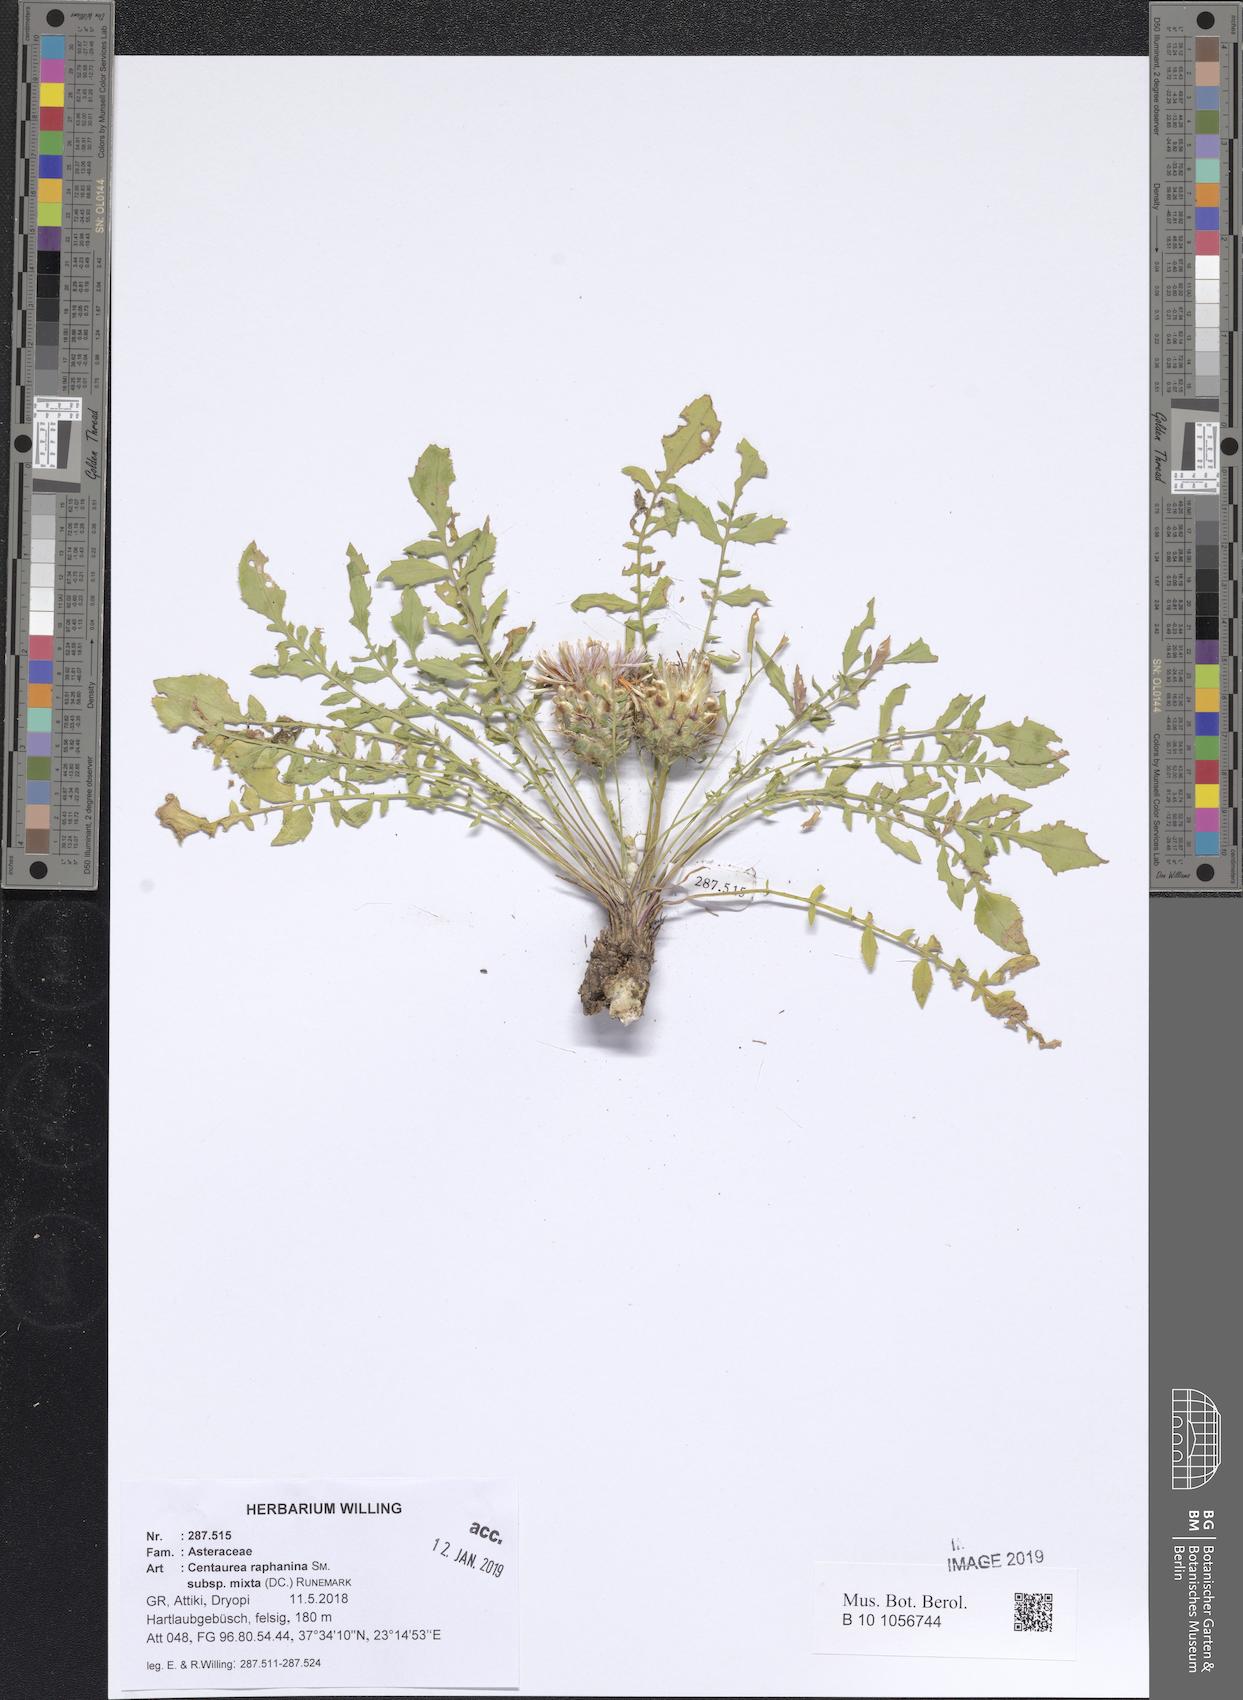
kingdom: Plantae
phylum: Tracheophyta
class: Magnoliopsida
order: Asterales
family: Asteraceae
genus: Centaurea
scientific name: Centaurea raphanina
